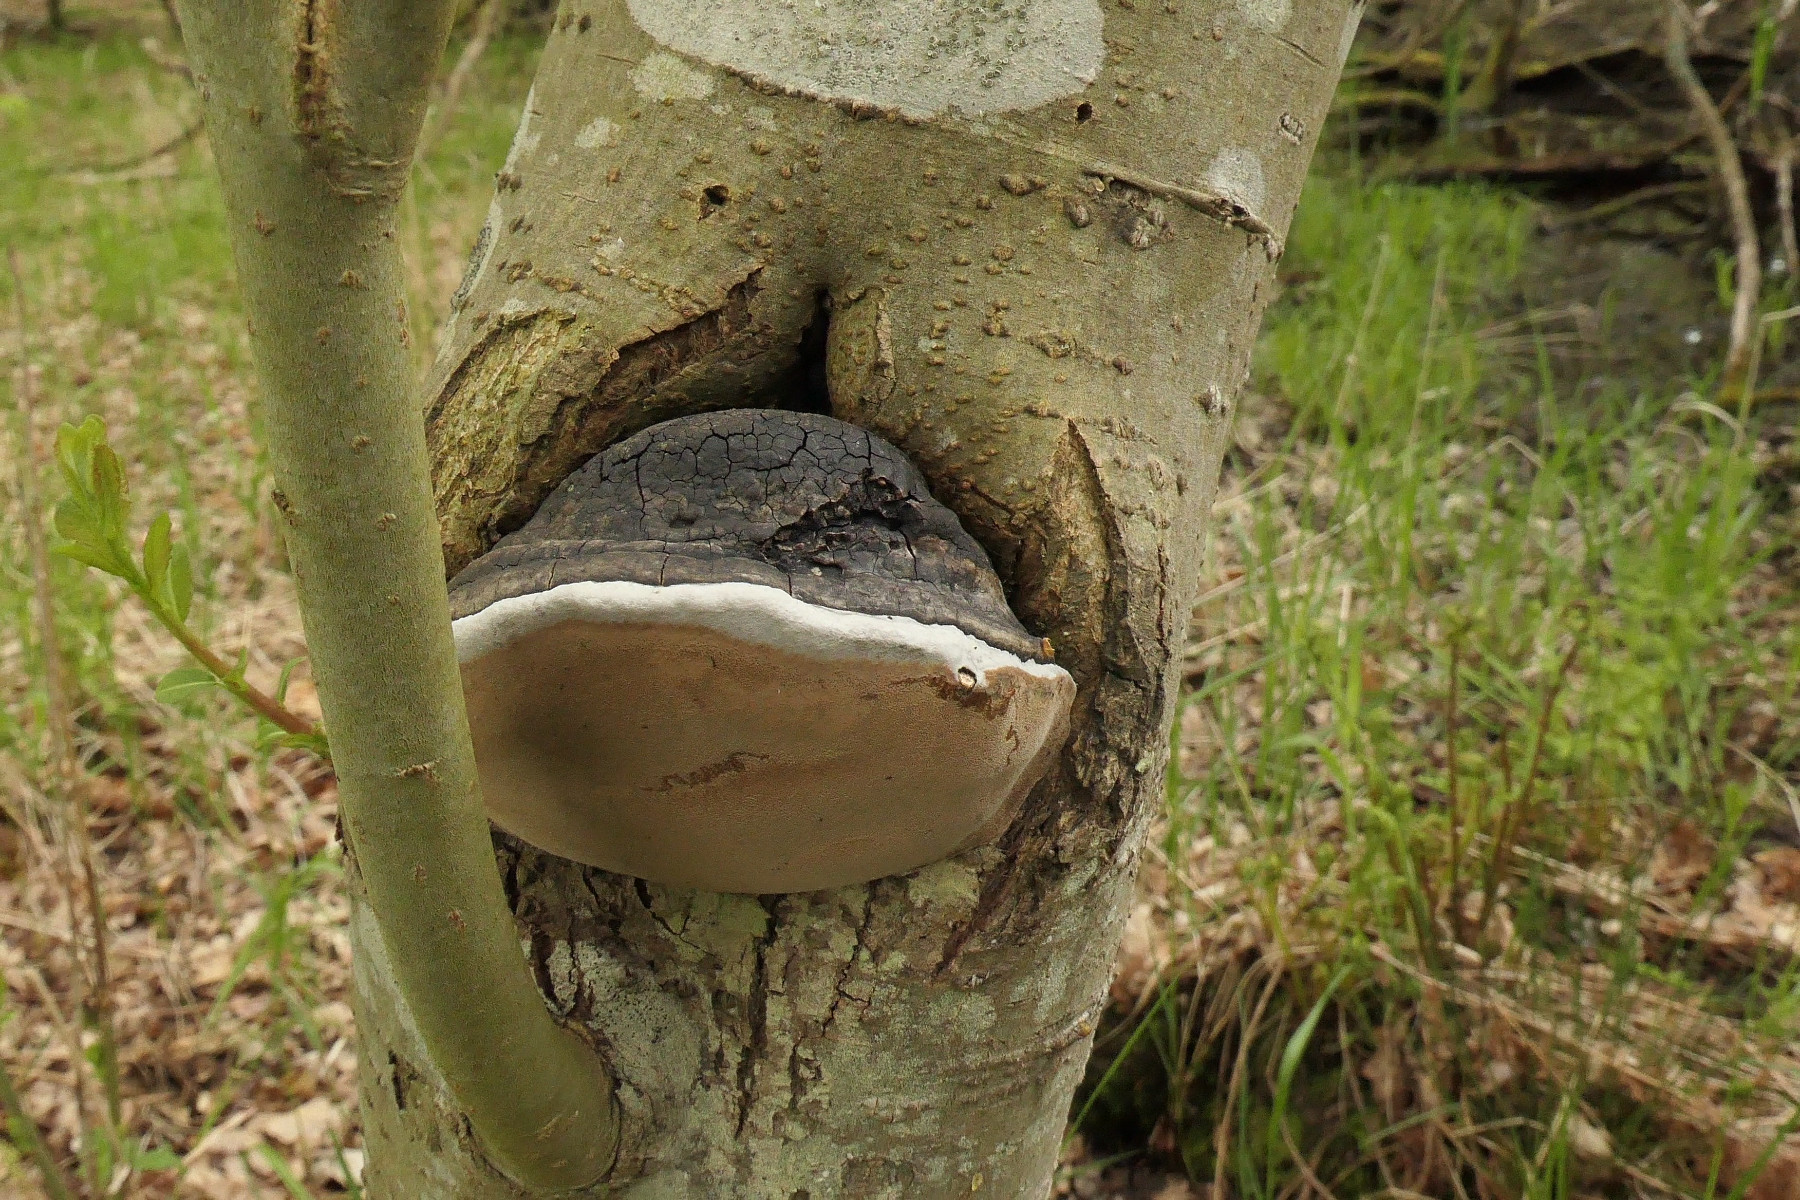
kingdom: Fungi
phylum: Basidiomycota
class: Agaricomycetes
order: Hymenochaetales
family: Hymenochaetaceae
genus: Phellinus
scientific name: Phellinus igniarius
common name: almindelig ildporesvamp
